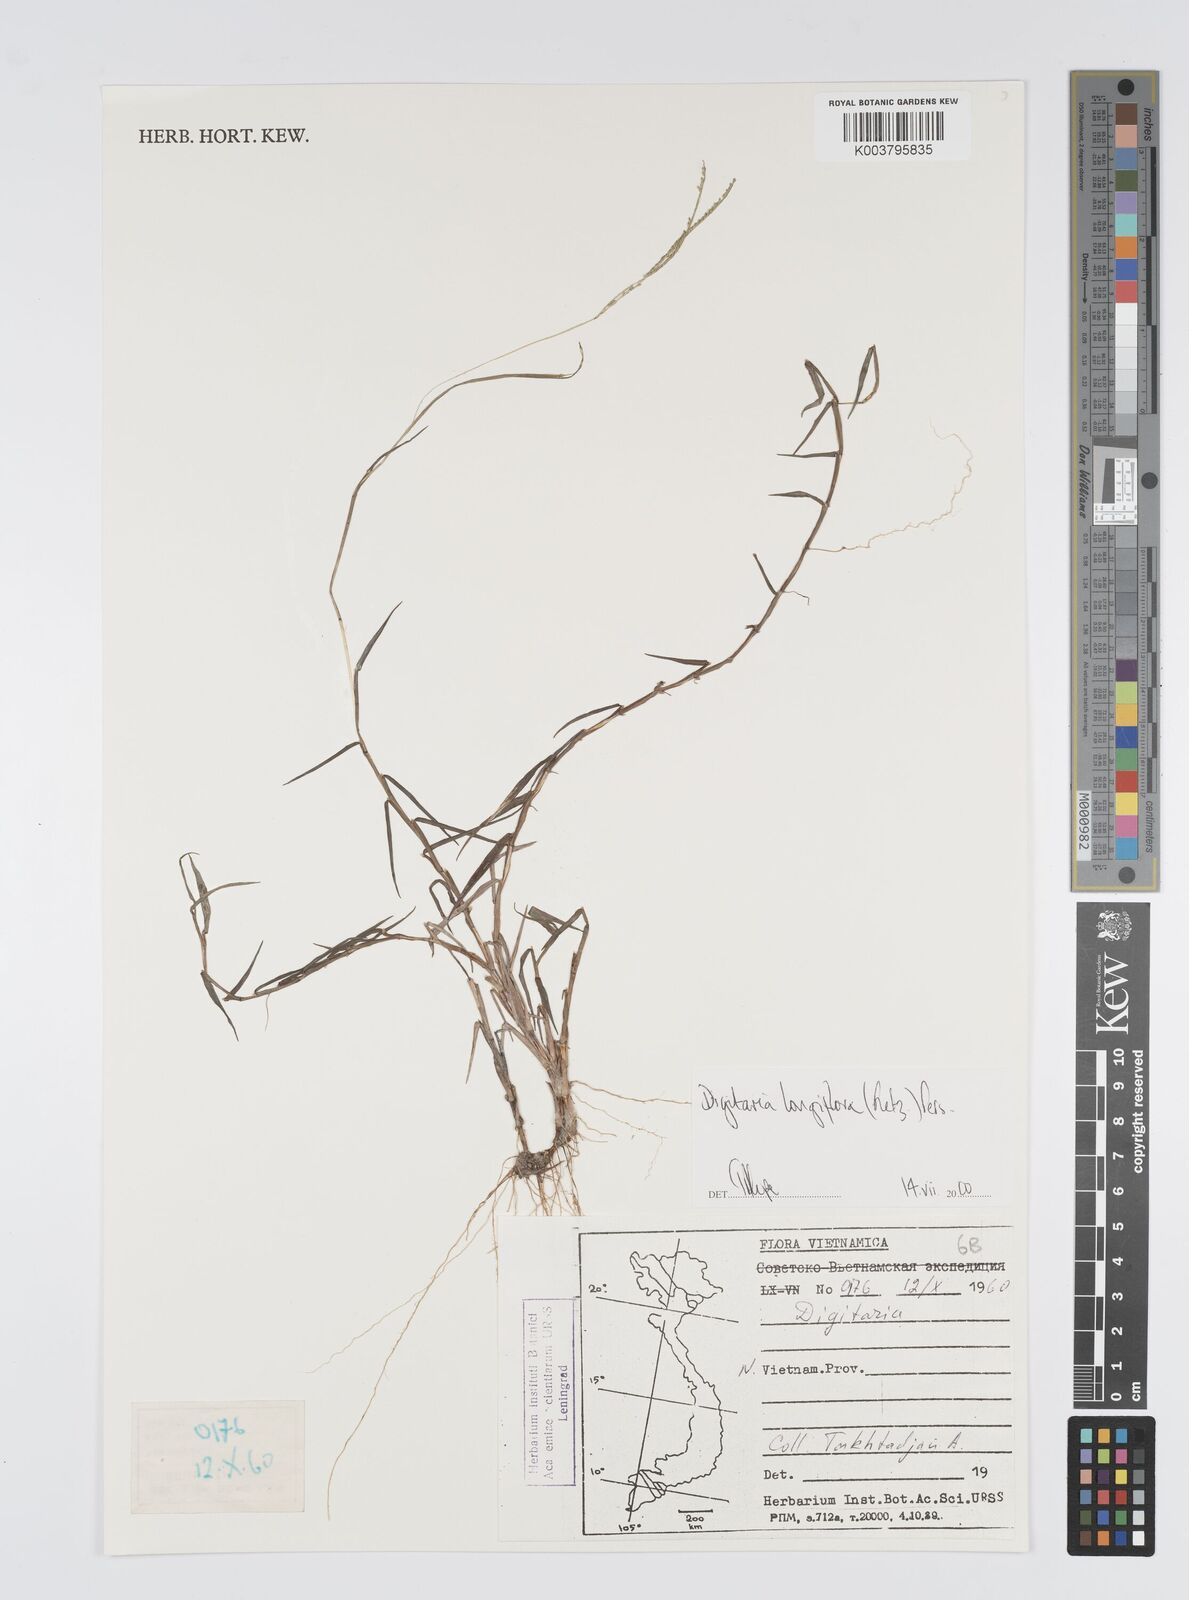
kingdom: Plantae
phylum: Tracheophyta
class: Liliopsida
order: Poales
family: Poaceae
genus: Digitaria
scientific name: Digitaria longiflora
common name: Wire crabgrass
